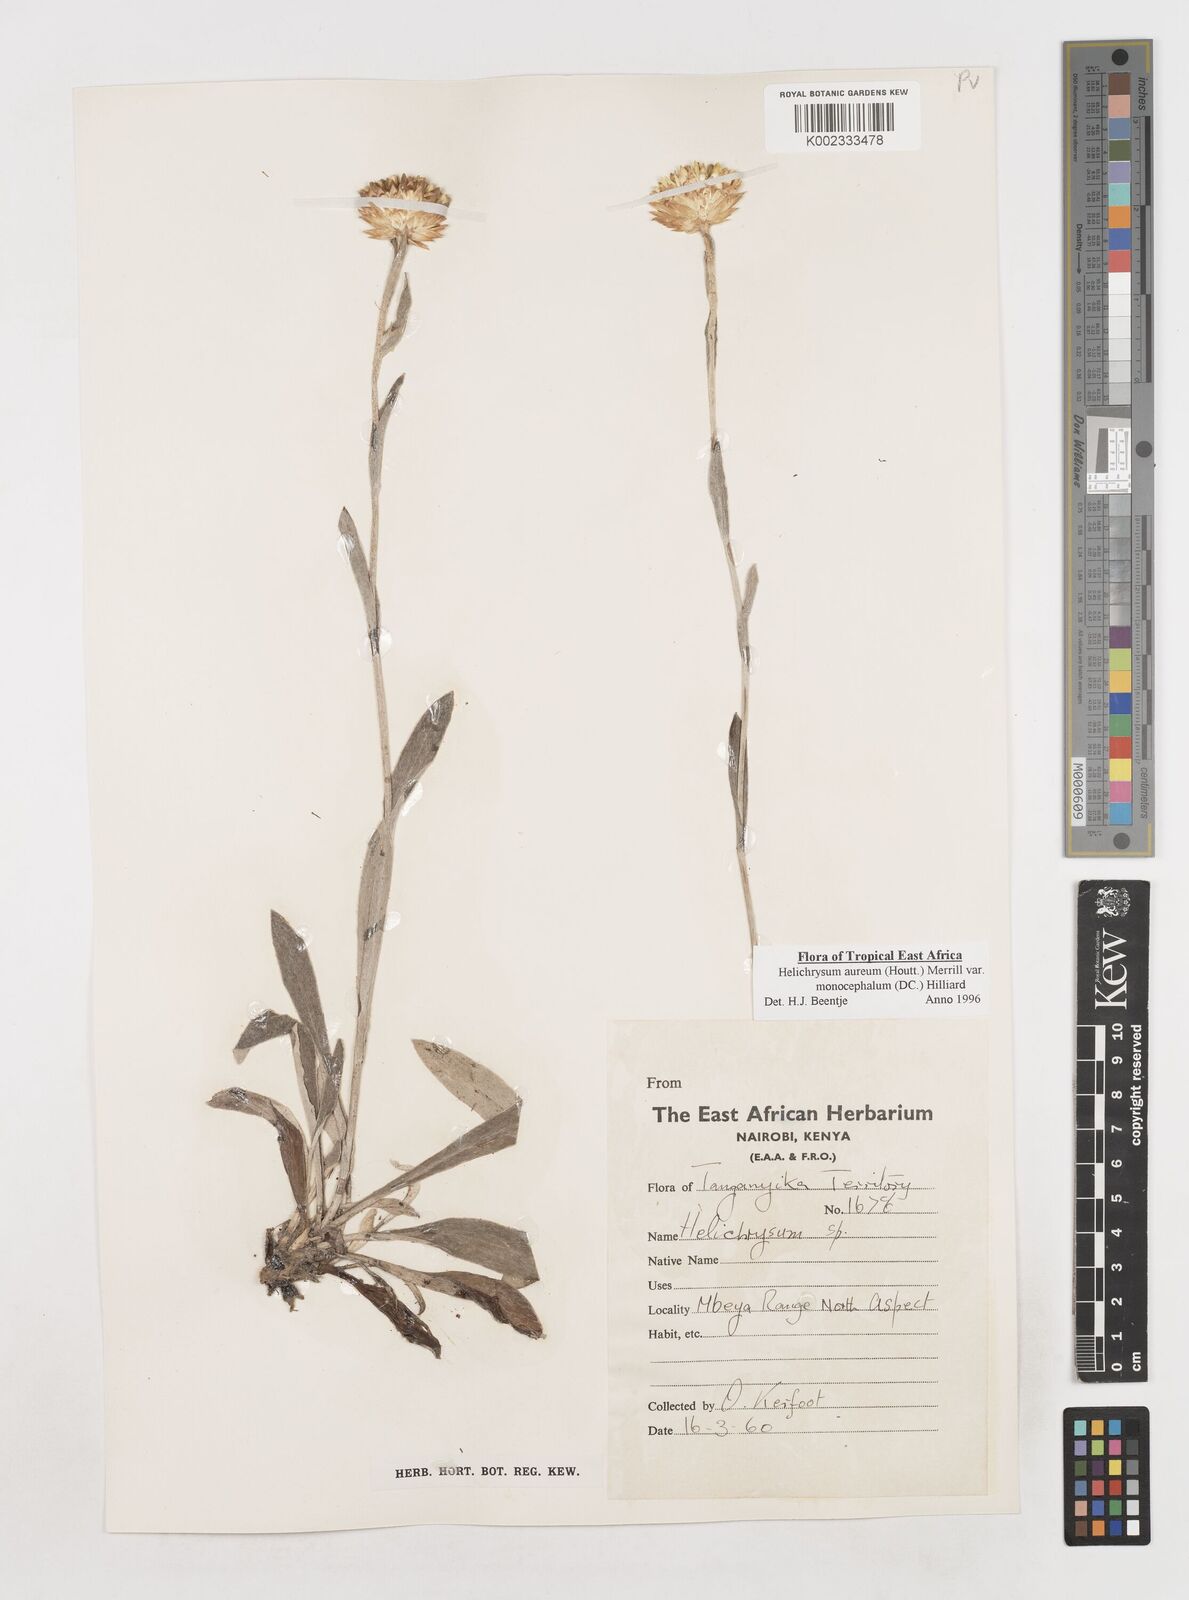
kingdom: Plantae
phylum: Tracheophyta
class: Magnoliopsida
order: Asterales
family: Asteraceae
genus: Helichrysum
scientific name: Helichrysum aureum
